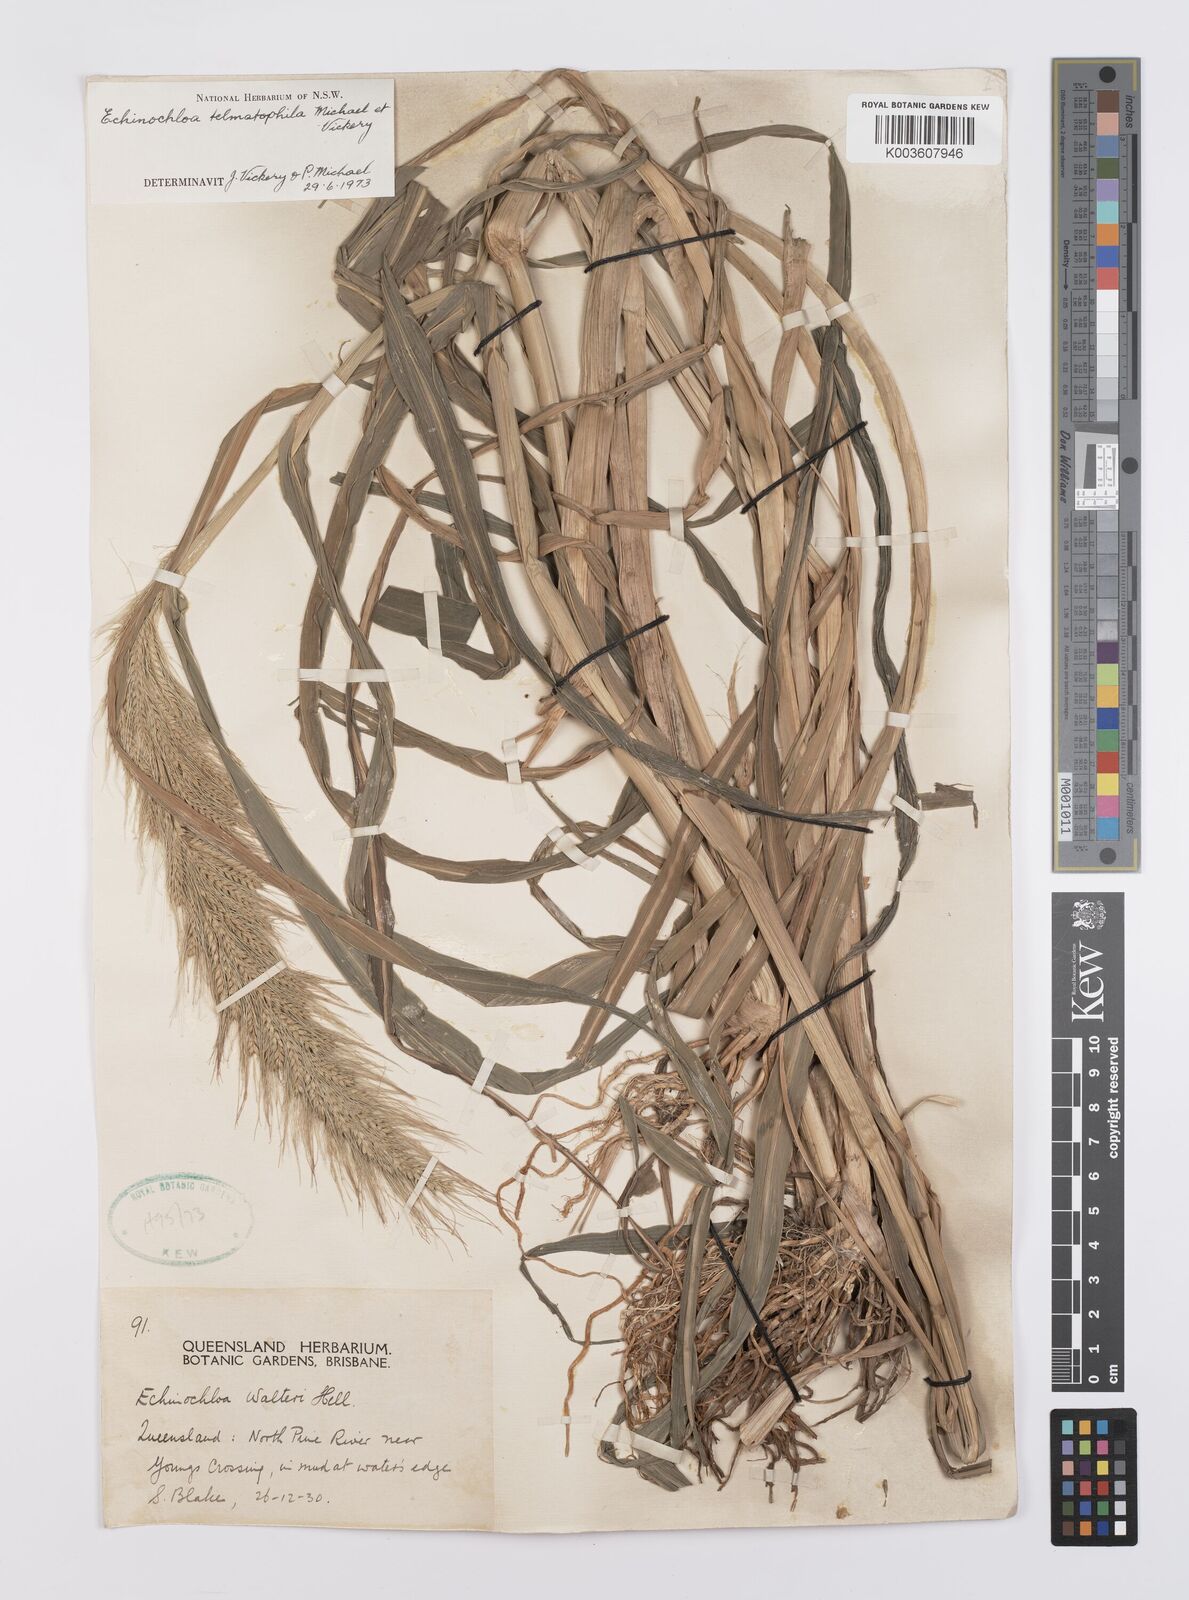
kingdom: Plantae
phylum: Tracheophyta
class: Liliopsida
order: Poales
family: Poaceae
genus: Echinochloa
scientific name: Echinochloa crus-galli
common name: Cockspur
